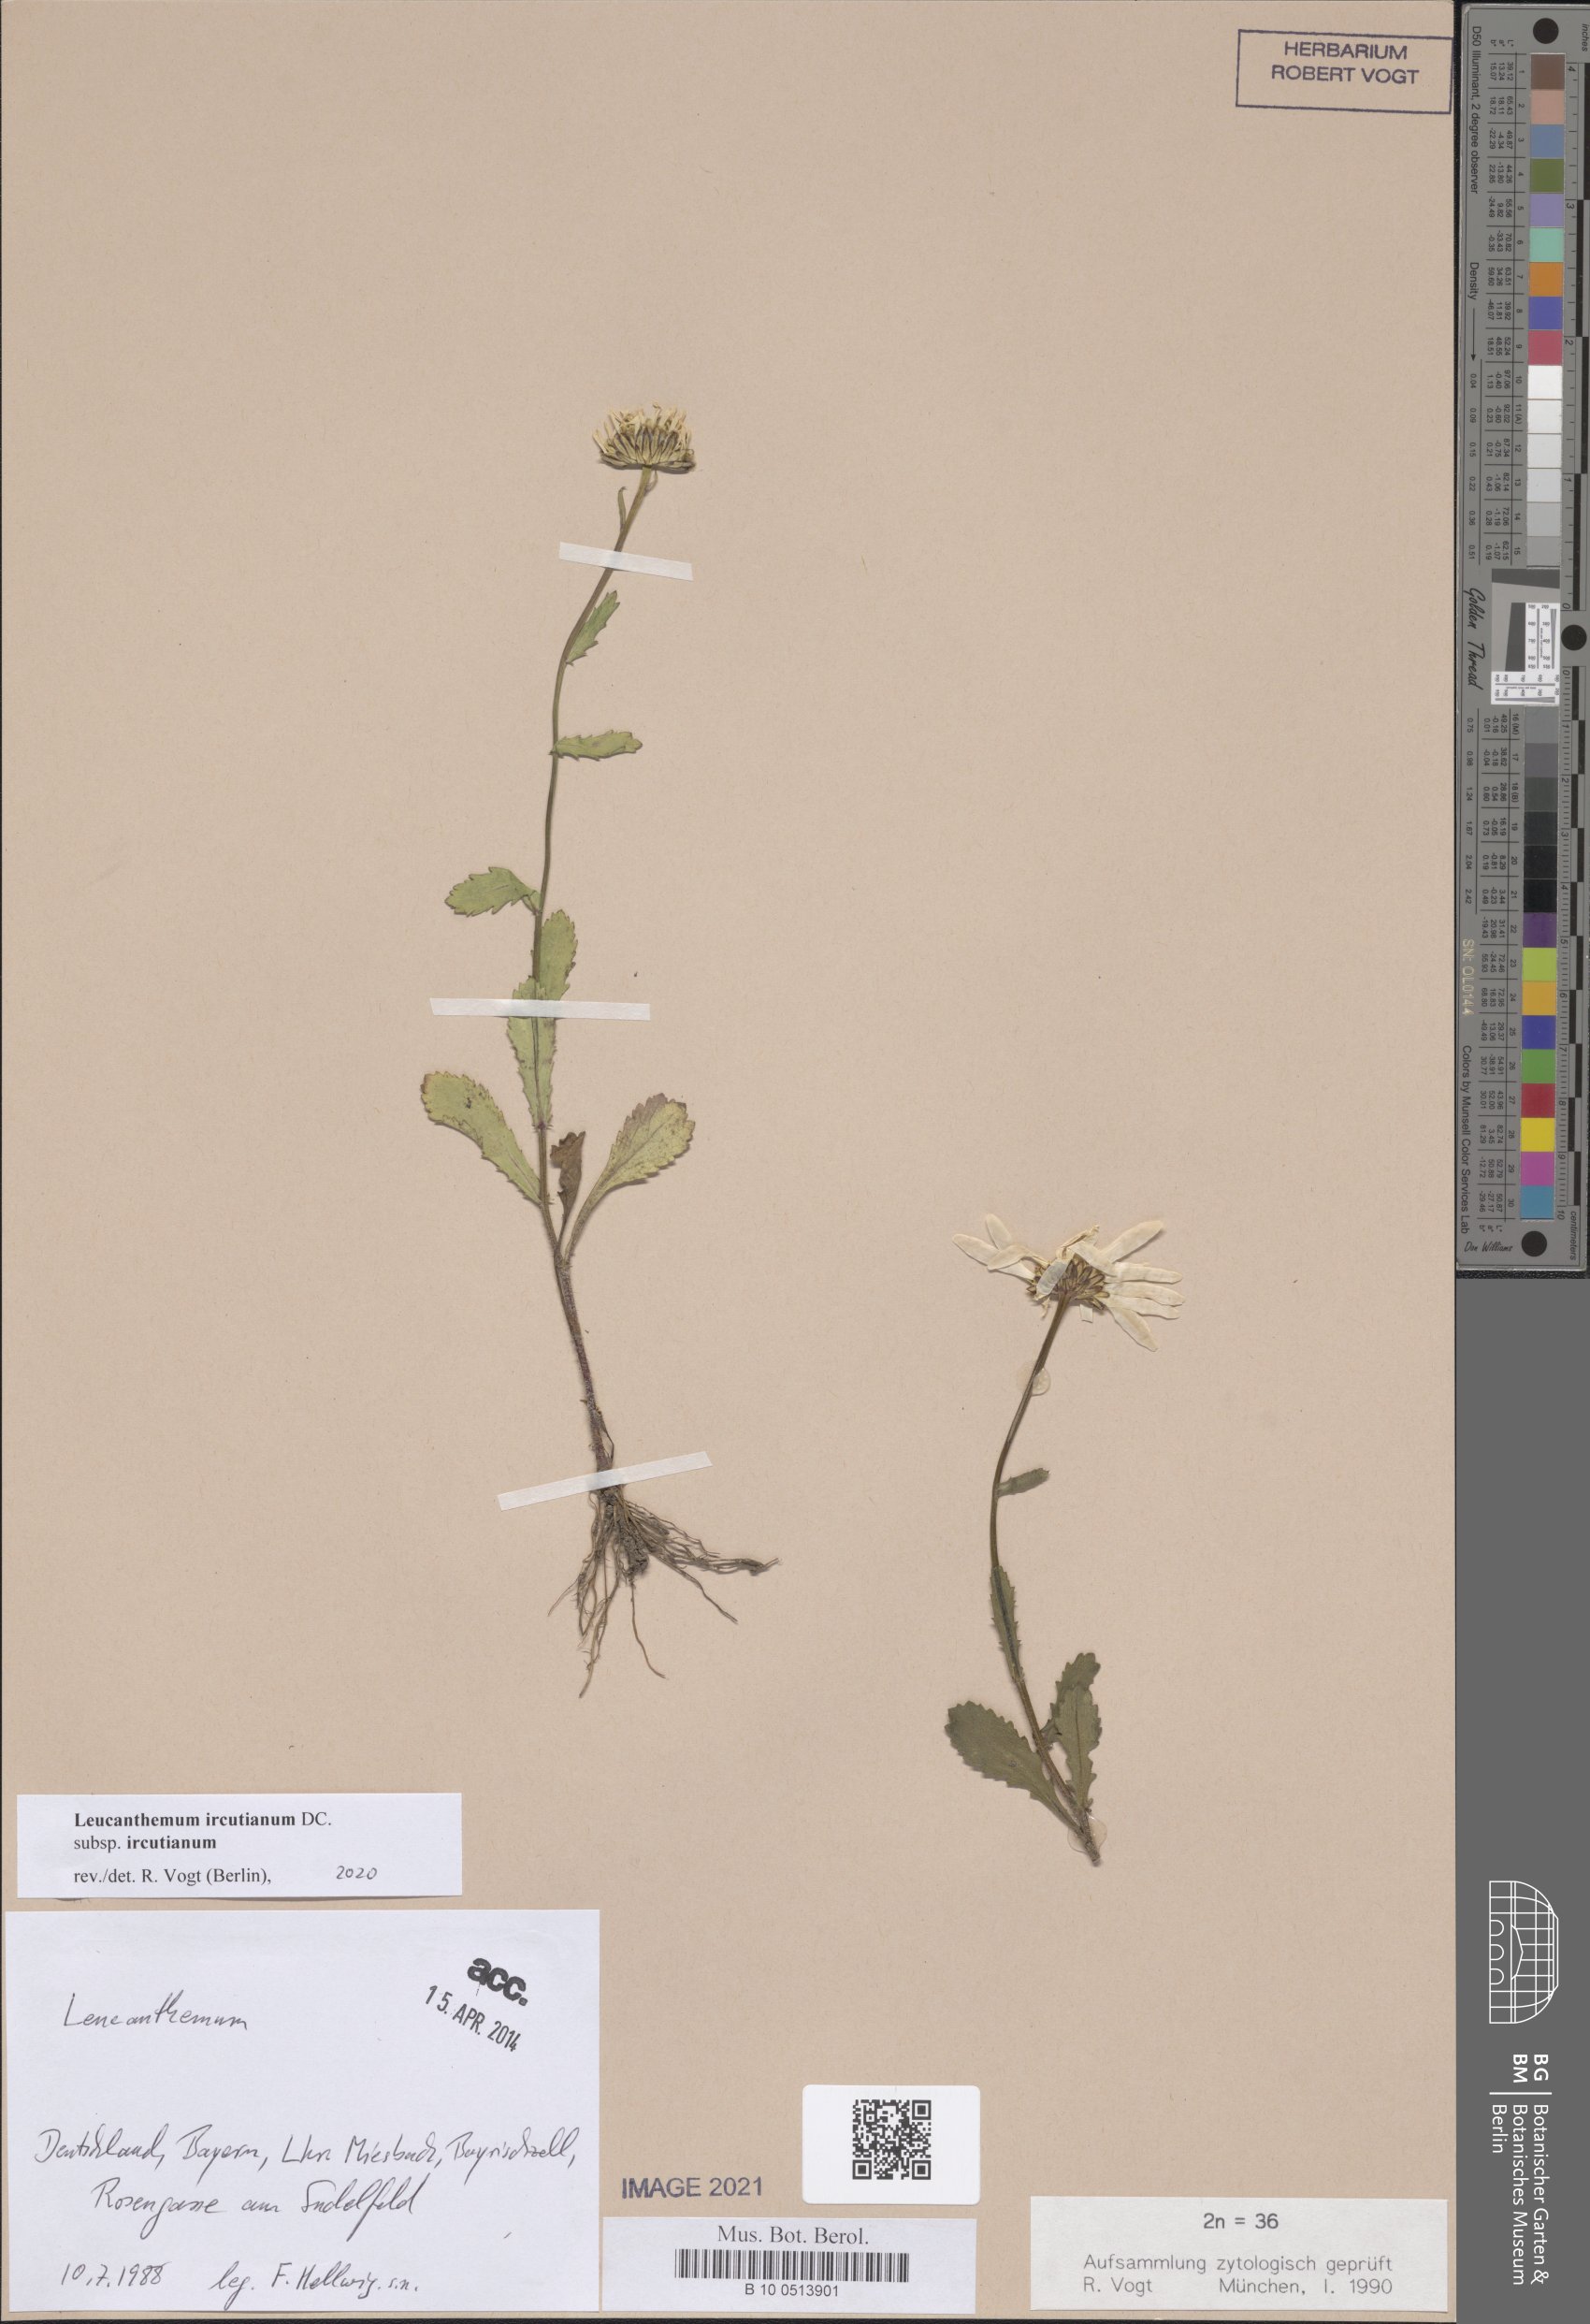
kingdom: Plantae
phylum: Tracheophyta
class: Magnoliopsida
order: Asterales
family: Asteraceae
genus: Leucanthemum
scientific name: Leucanthemum ircutianum
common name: Daisy
